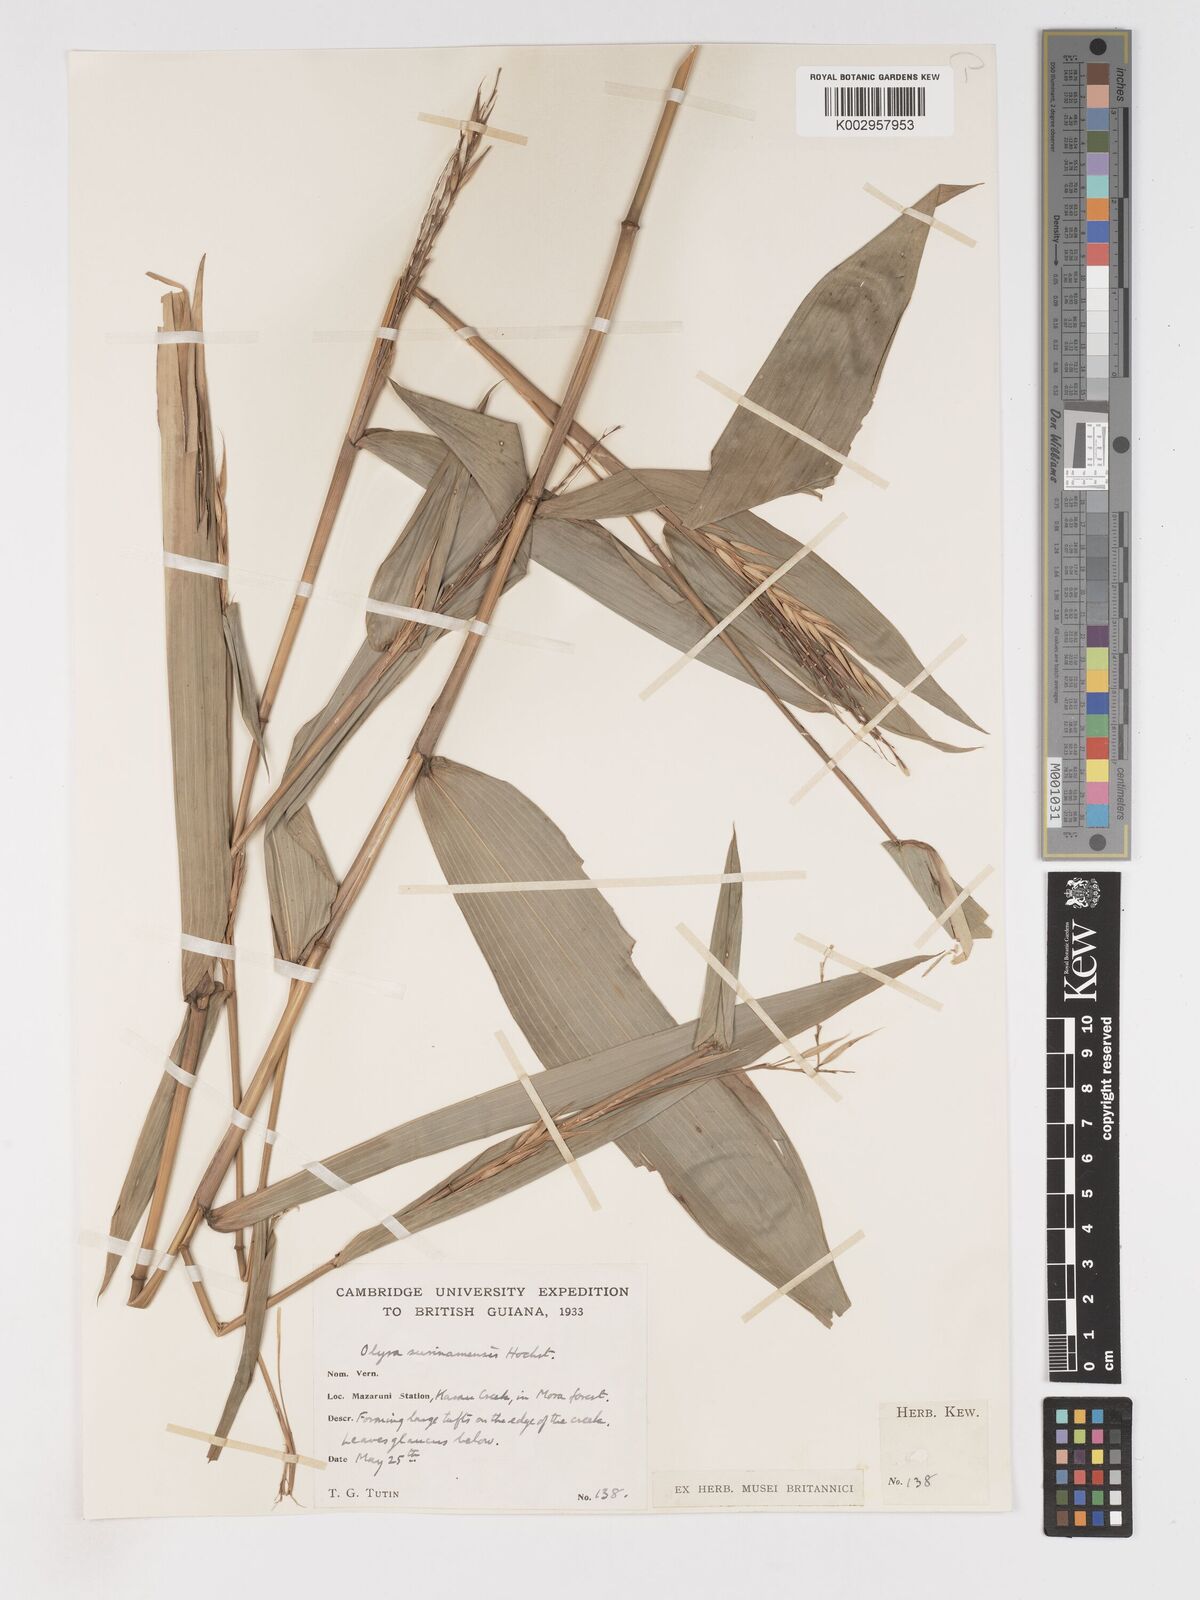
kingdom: Plantae
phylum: Tracheophyta
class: Liliopsida
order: Poales
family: Poaceae
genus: Olyra
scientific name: Olyra longifolia
